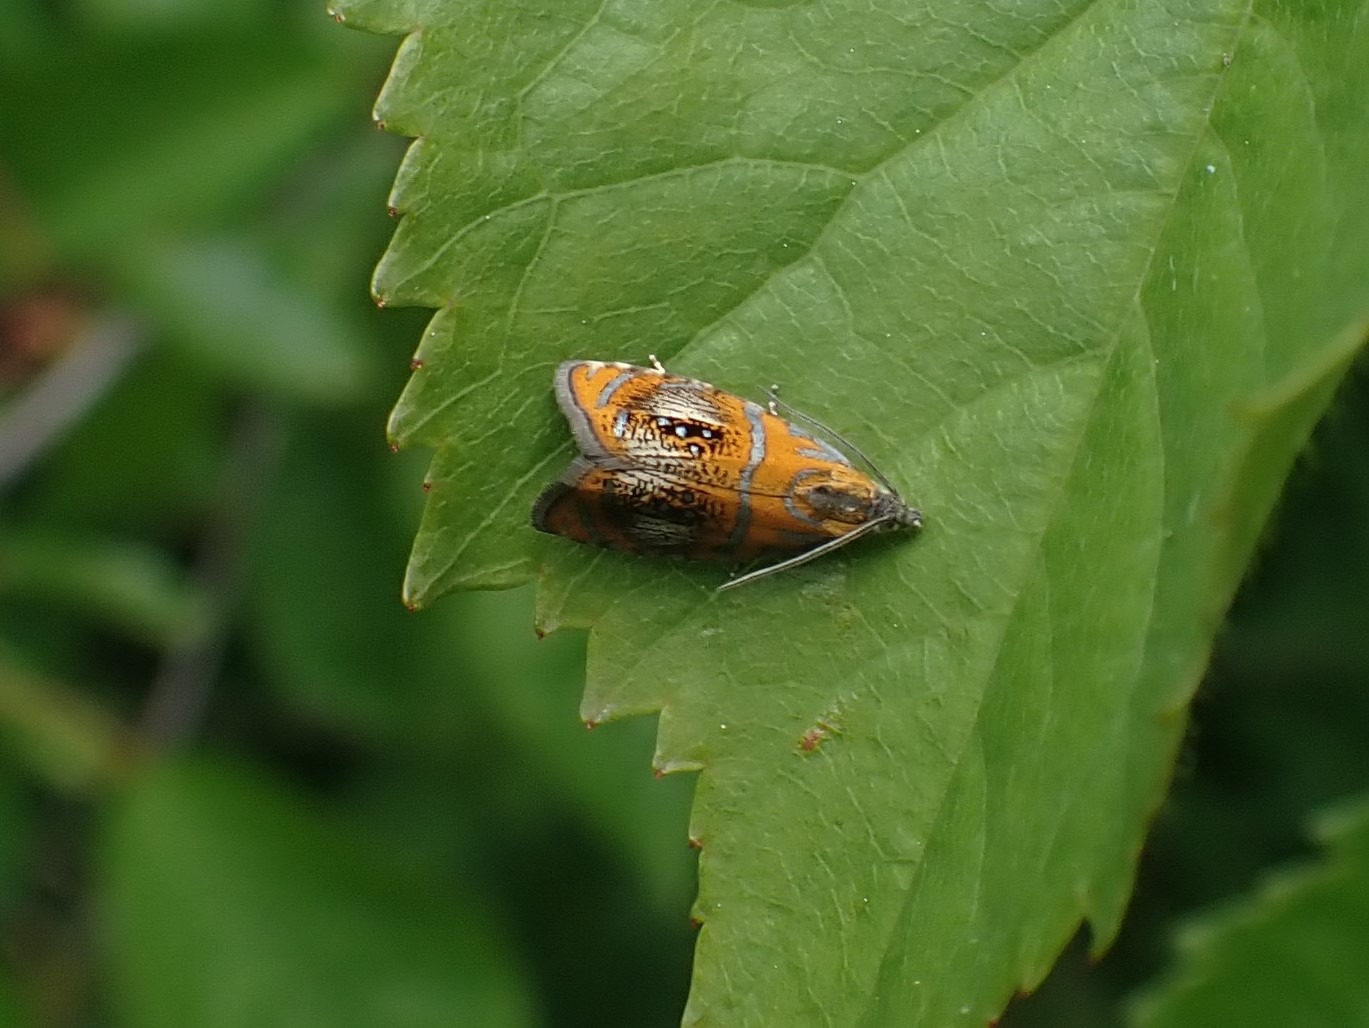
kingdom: Animalia
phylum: Arthropoda
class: Insecta
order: Lepidoptera
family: Tortricidae
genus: Olethreutes
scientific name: Olethreutes arcuella
